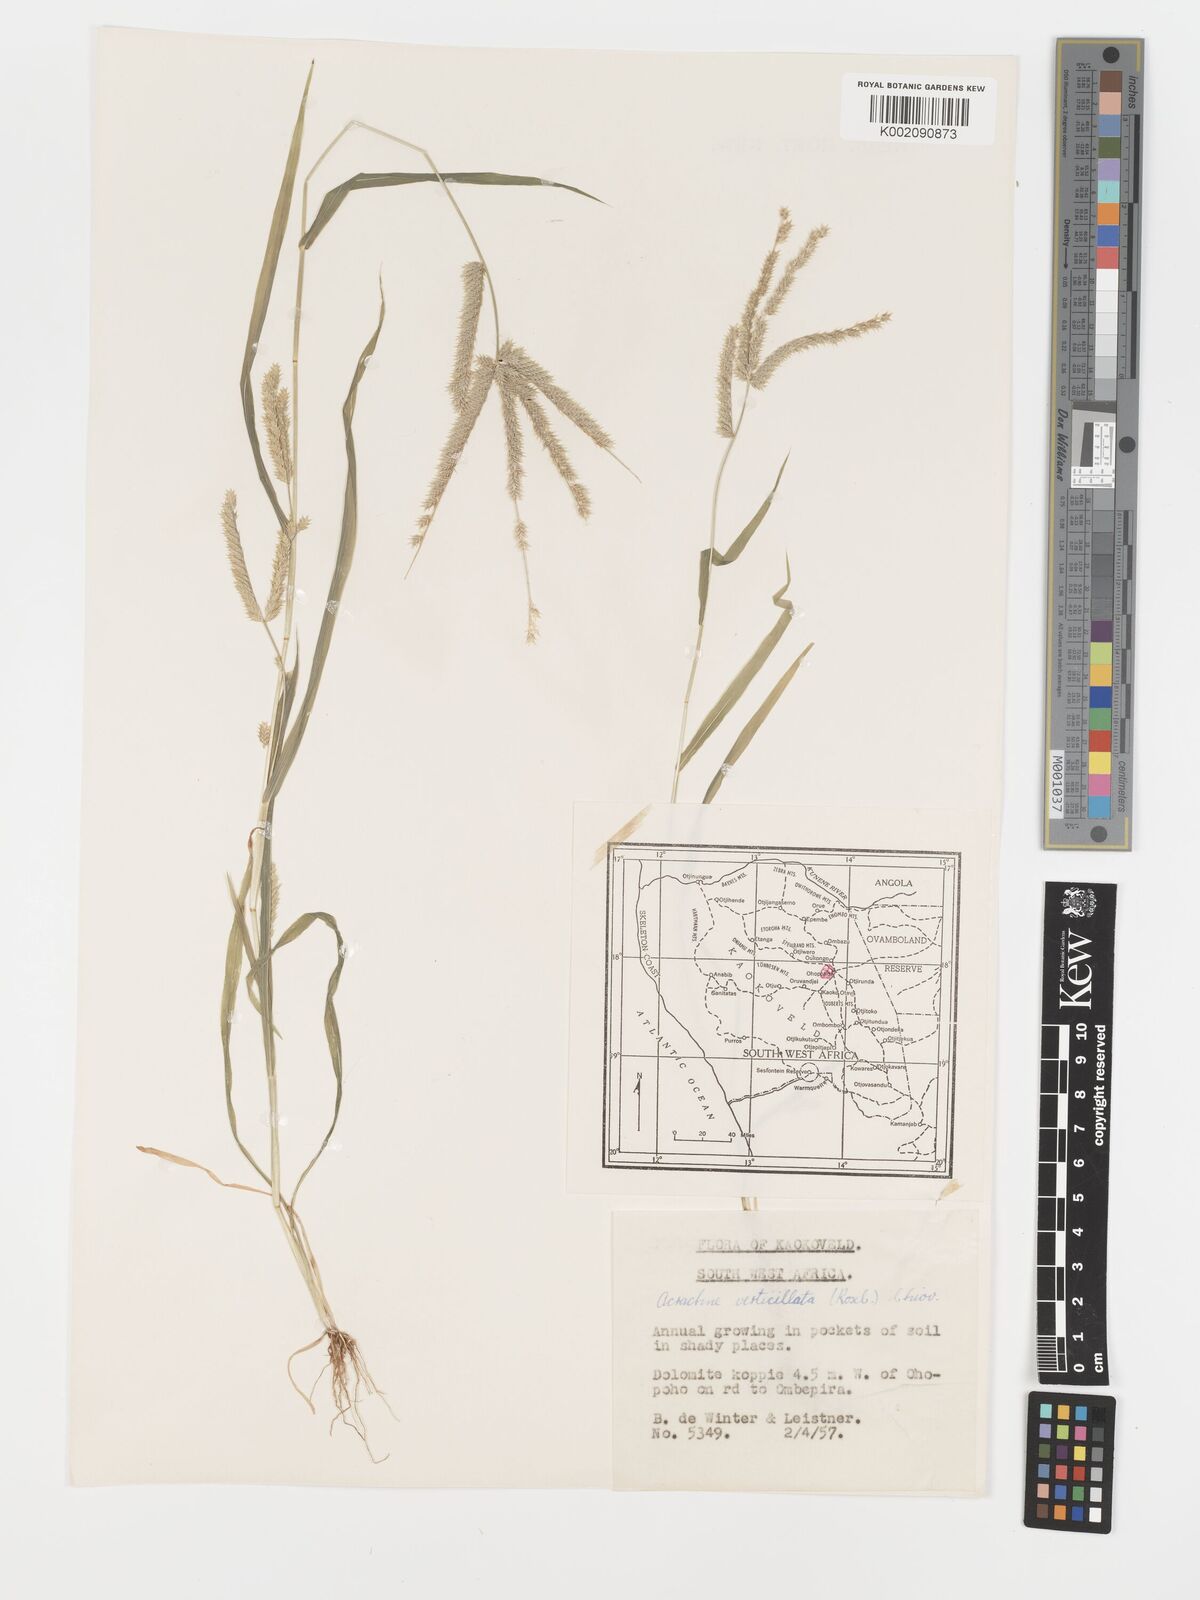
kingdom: Plantae
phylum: Tracheophyta
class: Liliopsida
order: Poales
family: Poaceae
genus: Acrachne
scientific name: Acrachne racemosa
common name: Goosegrass
